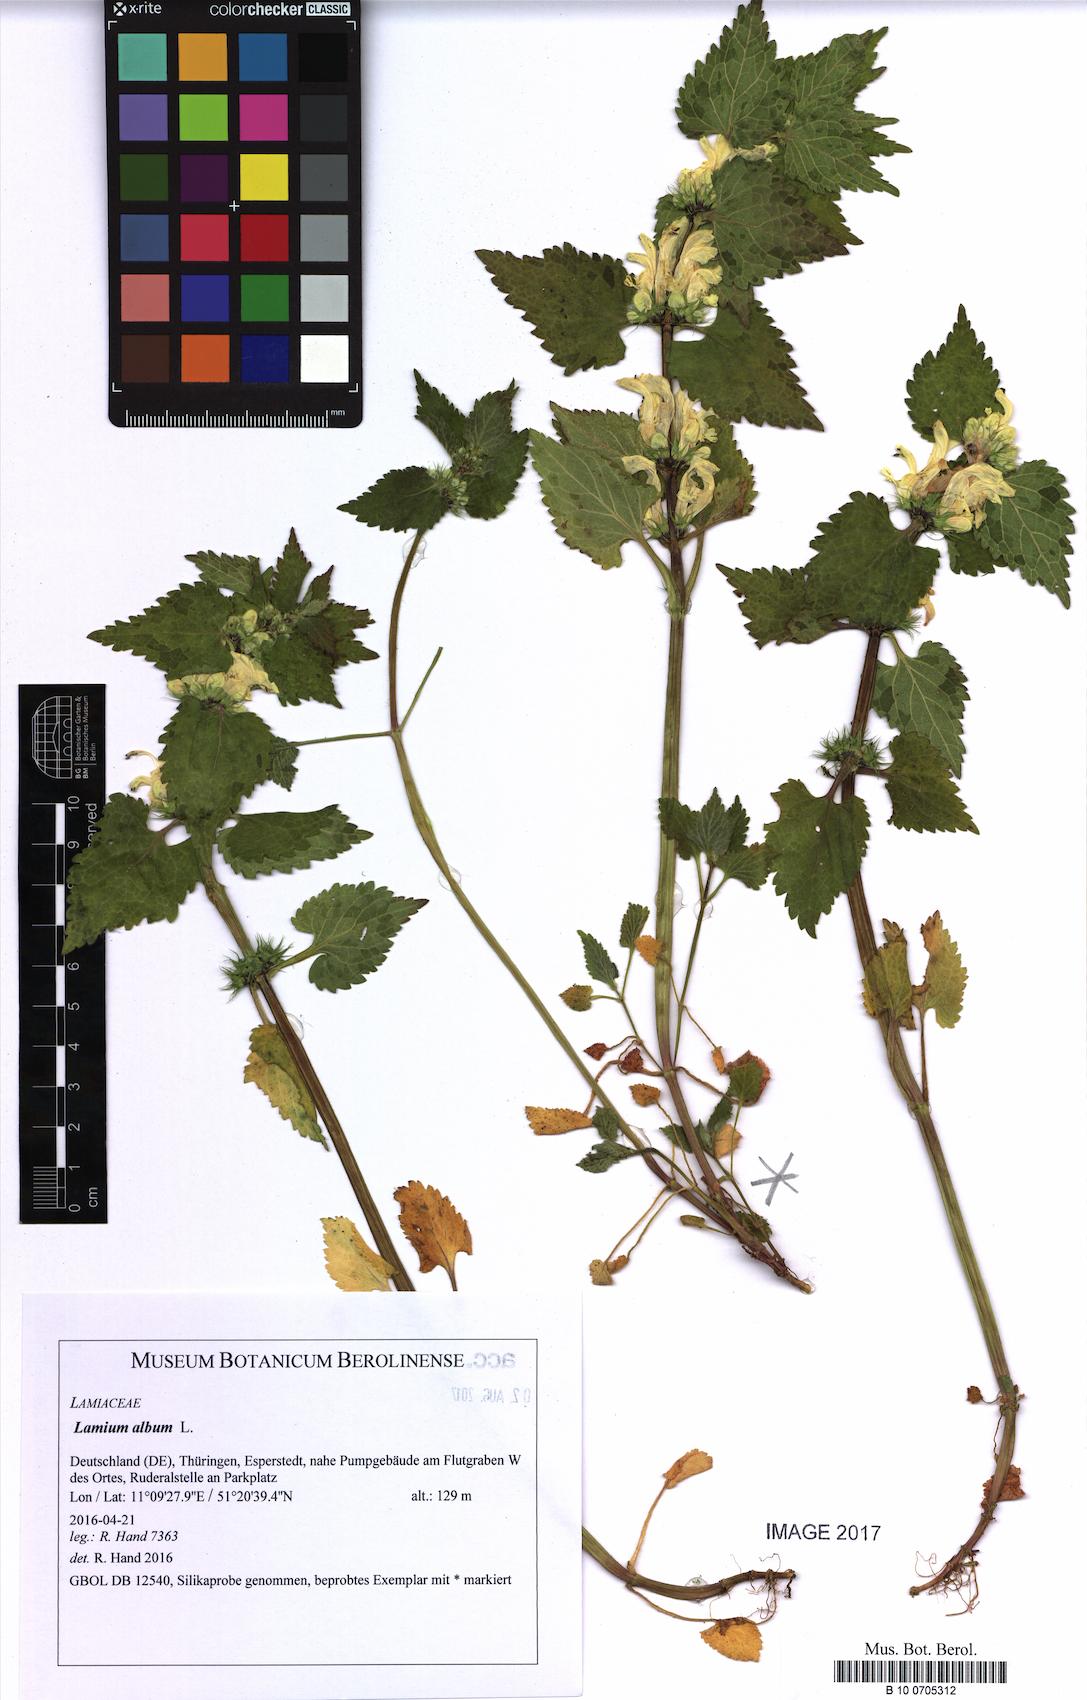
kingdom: Plantae
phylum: Tracheophyta
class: Magnoliopsida
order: Lamiales
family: Lamiaceae
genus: Lamium
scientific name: Lamium album
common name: White dead-nettle
